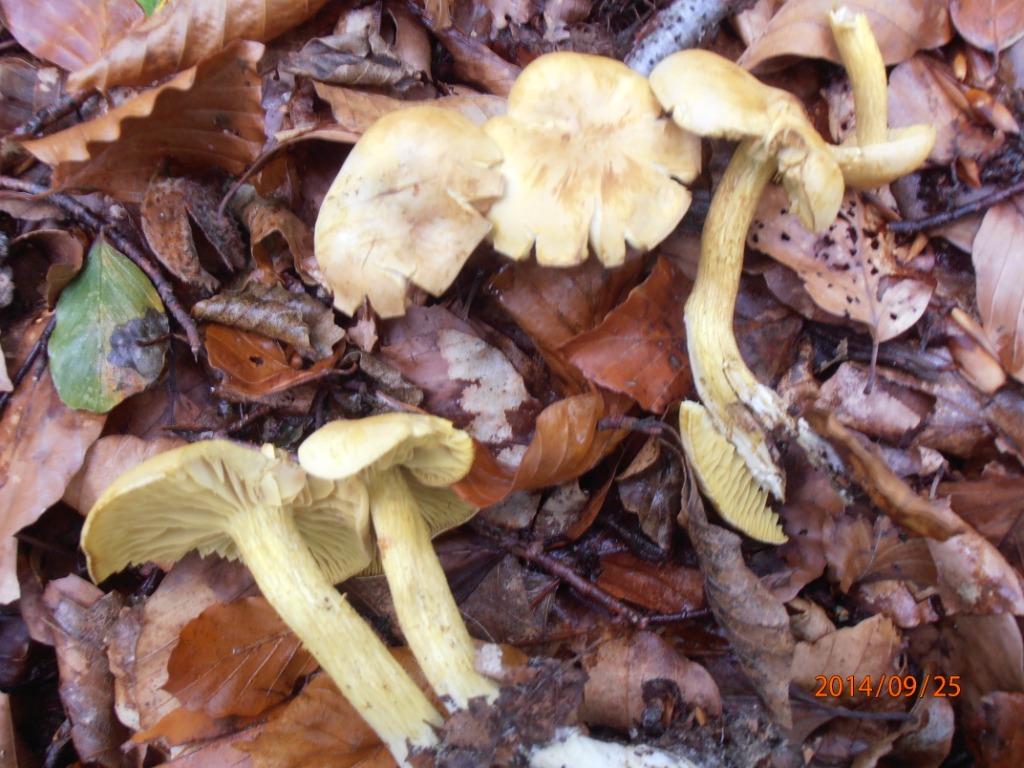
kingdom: Fungi
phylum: Basidiomycota
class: Agaricomycetes
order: Agaricales
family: Tricholomataceae
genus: Tricholoma
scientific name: Tricholoma sulphureum
